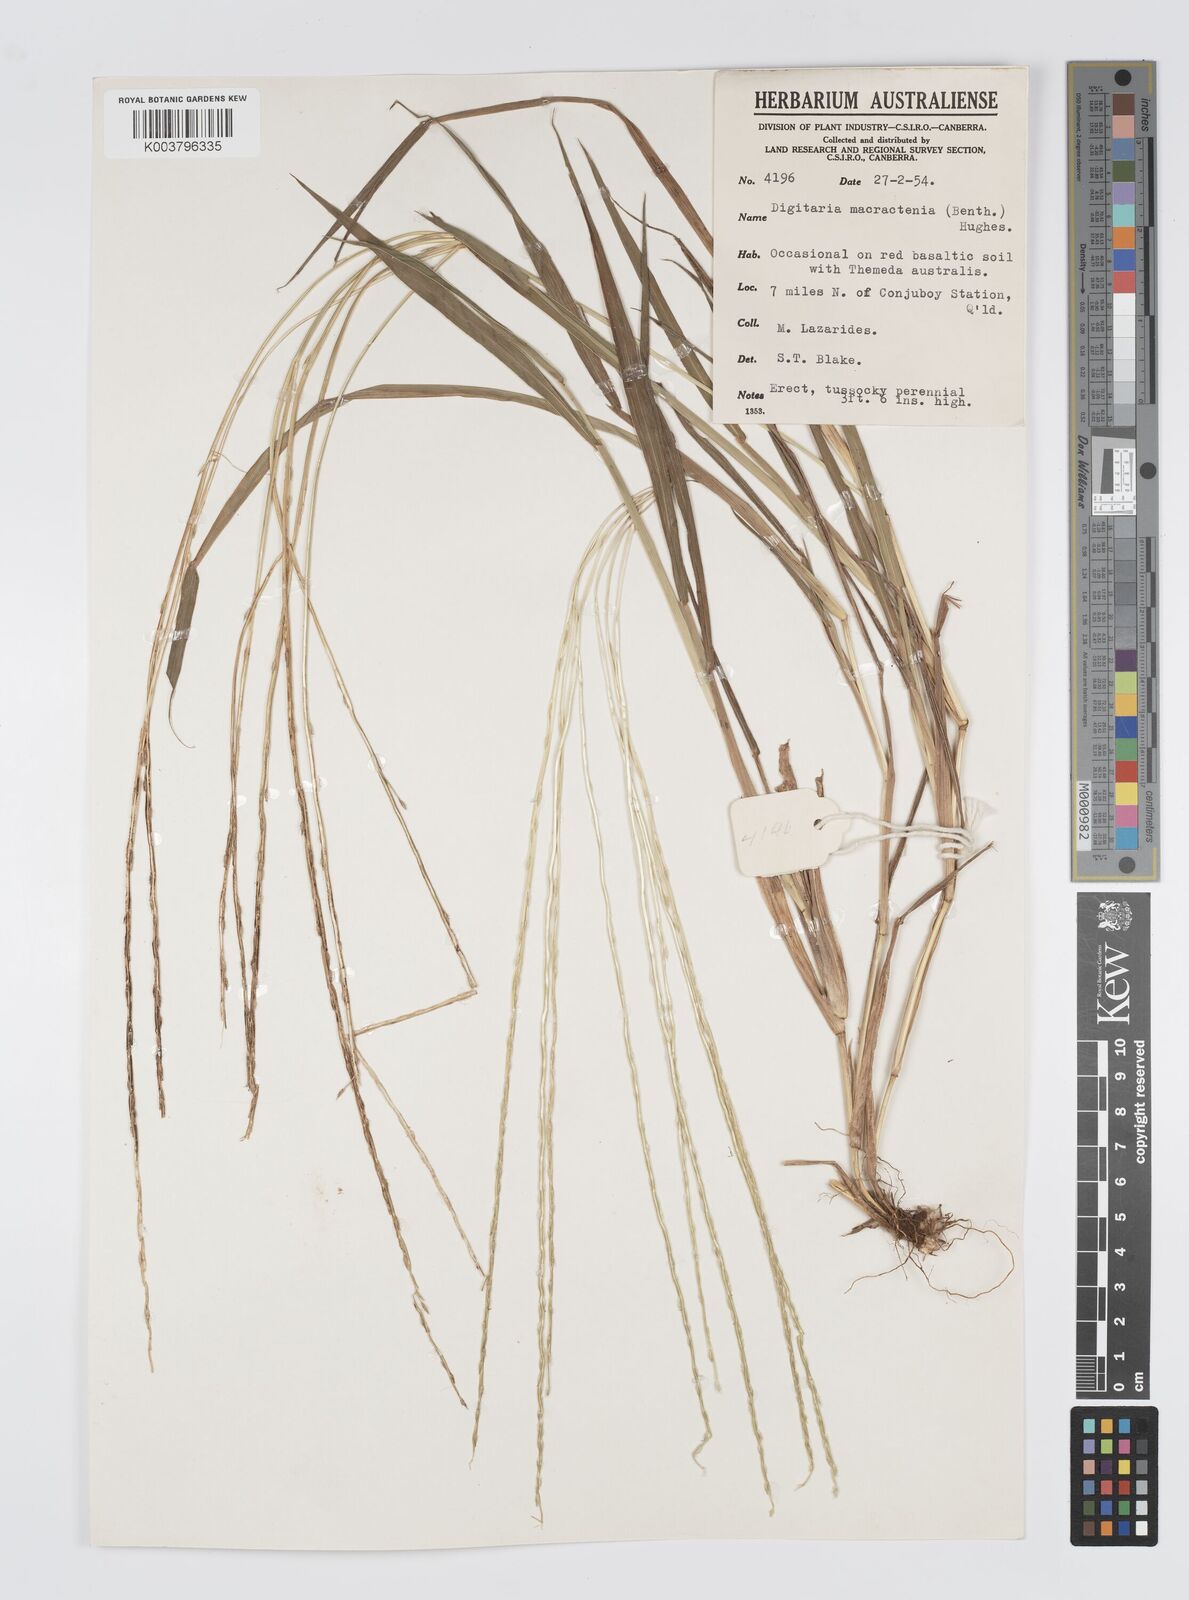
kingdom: Plantae
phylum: Tracheophyta
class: Liliopsida
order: Poales
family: Poaceae
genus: Digitaria
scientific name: Digitaria spec
